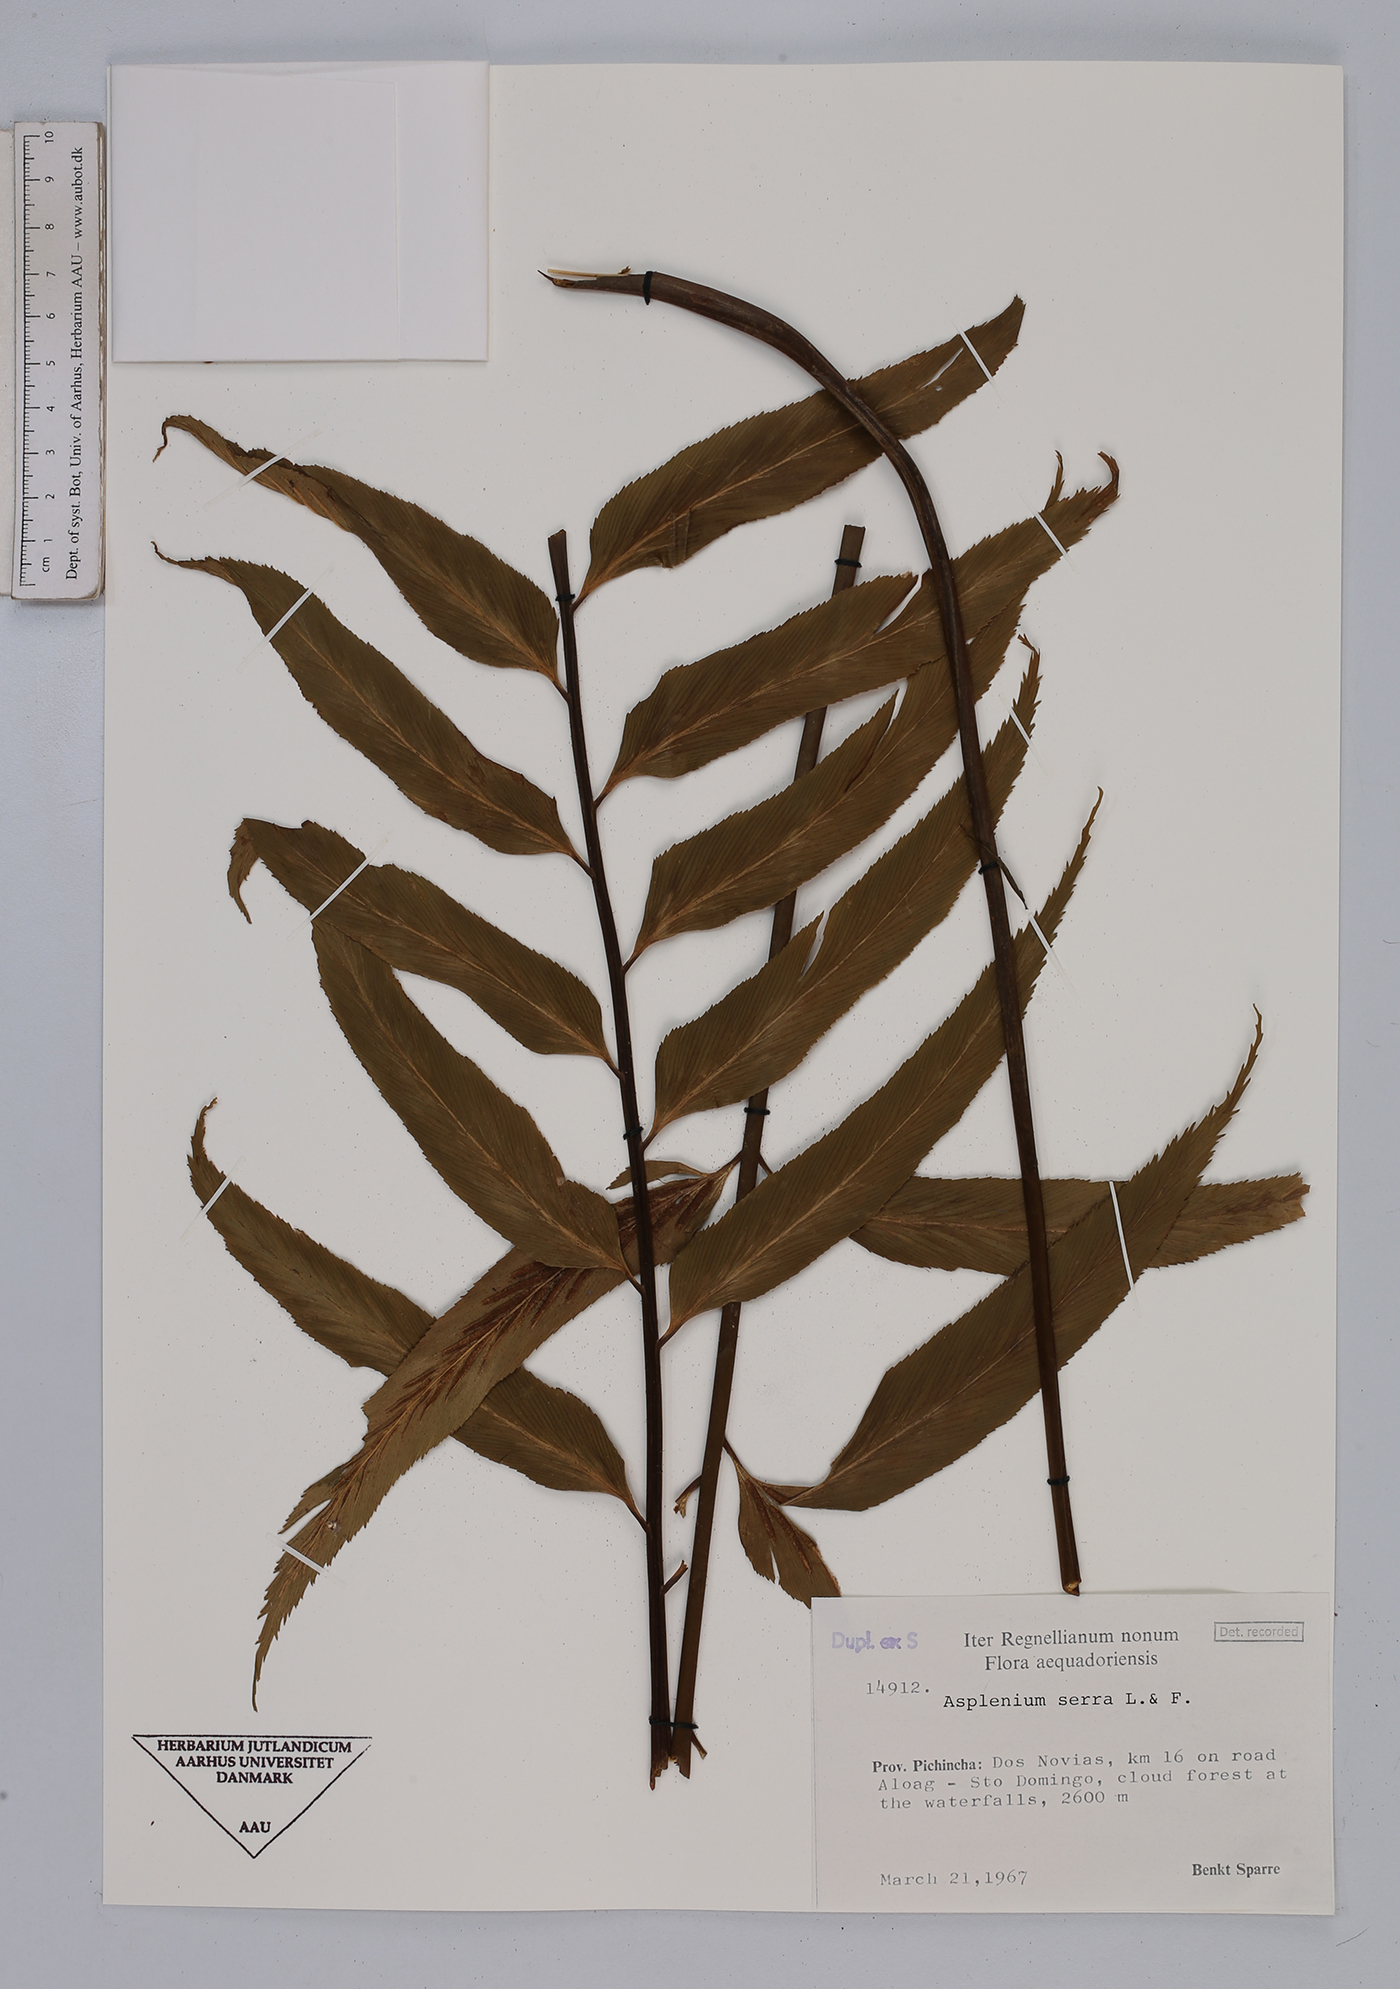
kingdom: Plantae
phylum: Tracheophyta
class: Polypodiopsida
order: Polypodiales
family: Aspleniaceae
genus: Asplenium
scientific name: Asplenium serra
